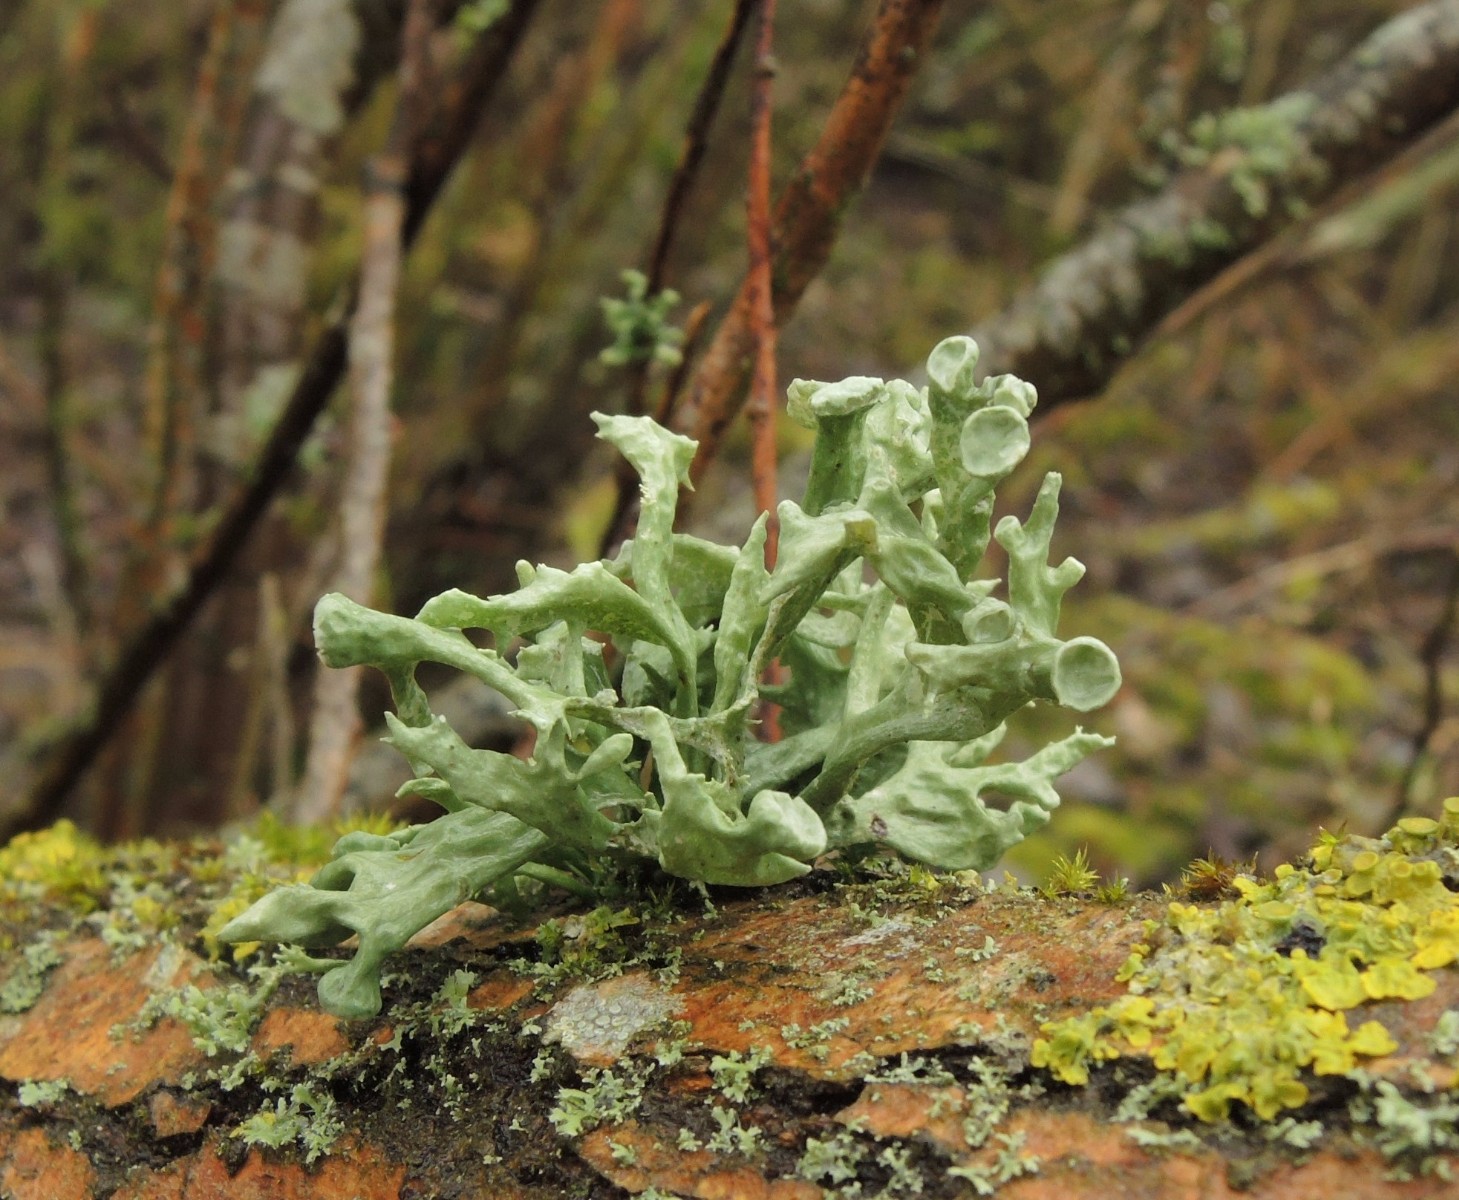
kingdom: Fungi
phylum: Ascomycota
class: Lecanoromycetes
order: Lecanorales
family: Ramalinaceae
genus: Ramalina
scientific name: Ramalina fastigiata
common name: tue-grenlav
